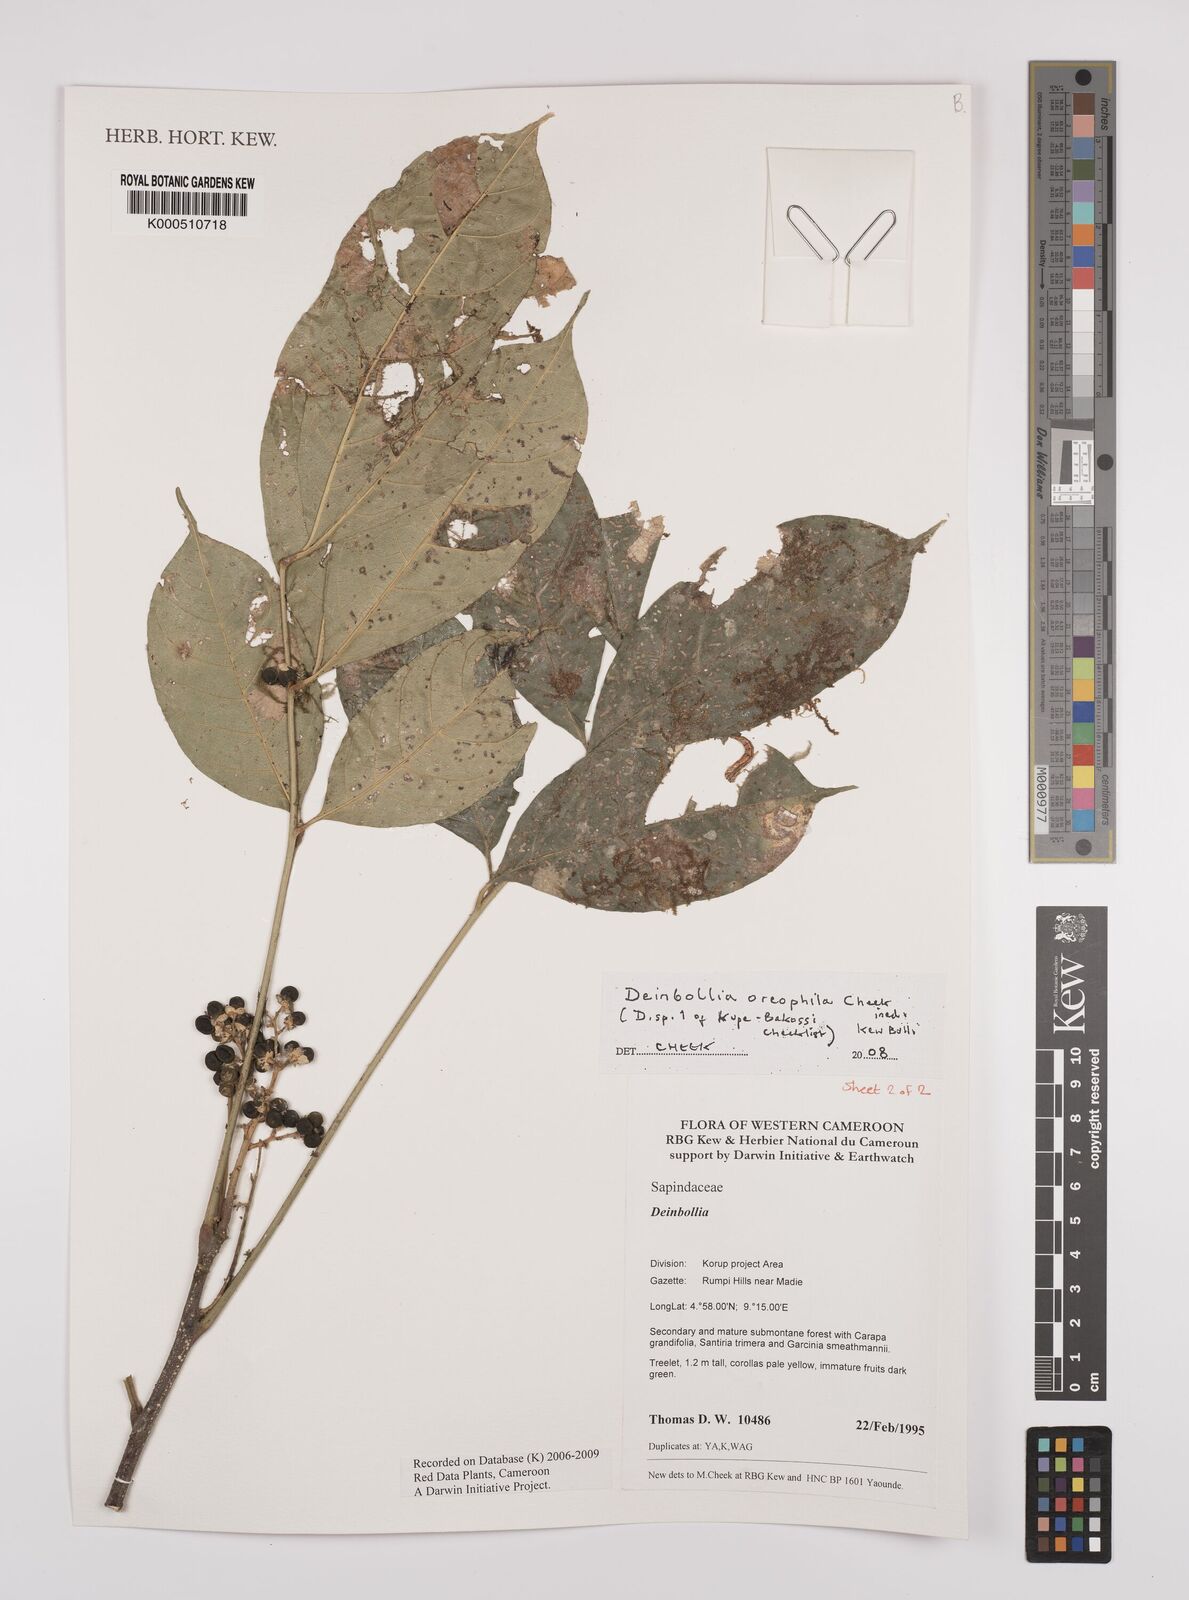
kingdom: Plantae
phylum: Tracheophyta
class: Magnoliopsida
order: Sapindales
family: Sapindaceae
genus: Deinbollia
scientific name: Deinbollia oreophila
